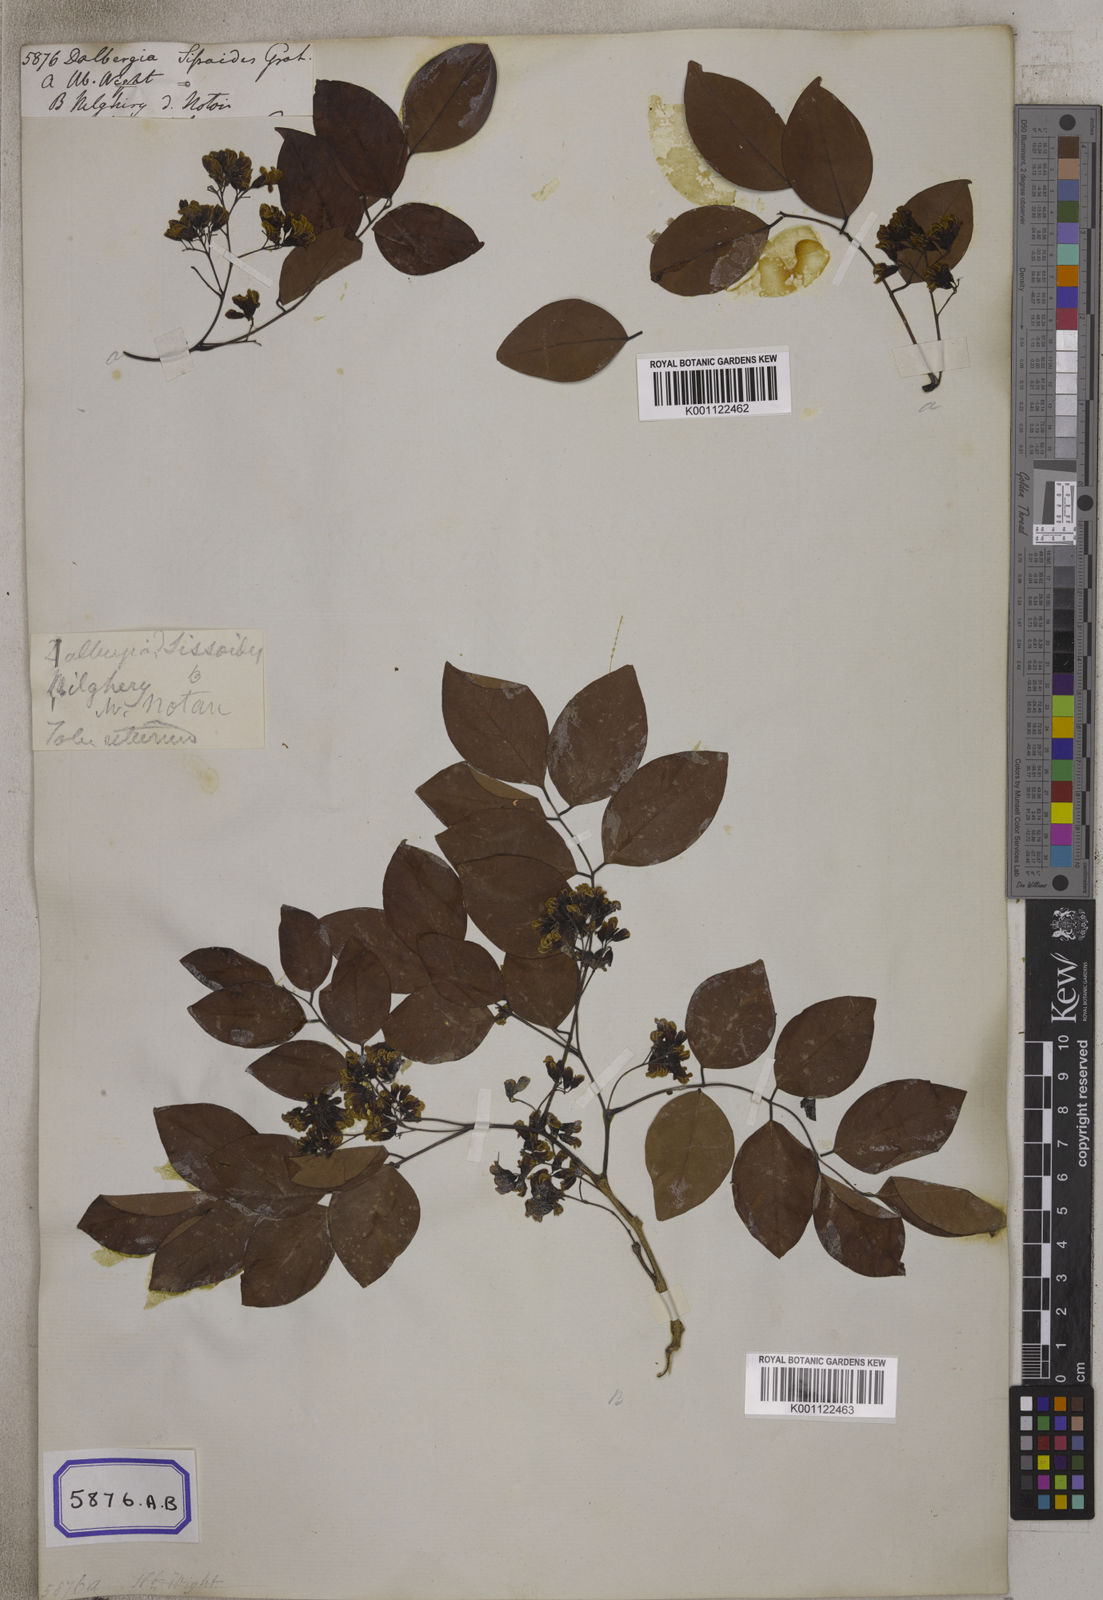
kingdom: Plantae
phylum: Tracheophyta
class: Magnoliopsida
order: Fabales
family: Fabaceae
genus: Dalbergia
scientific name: Dalbergia
